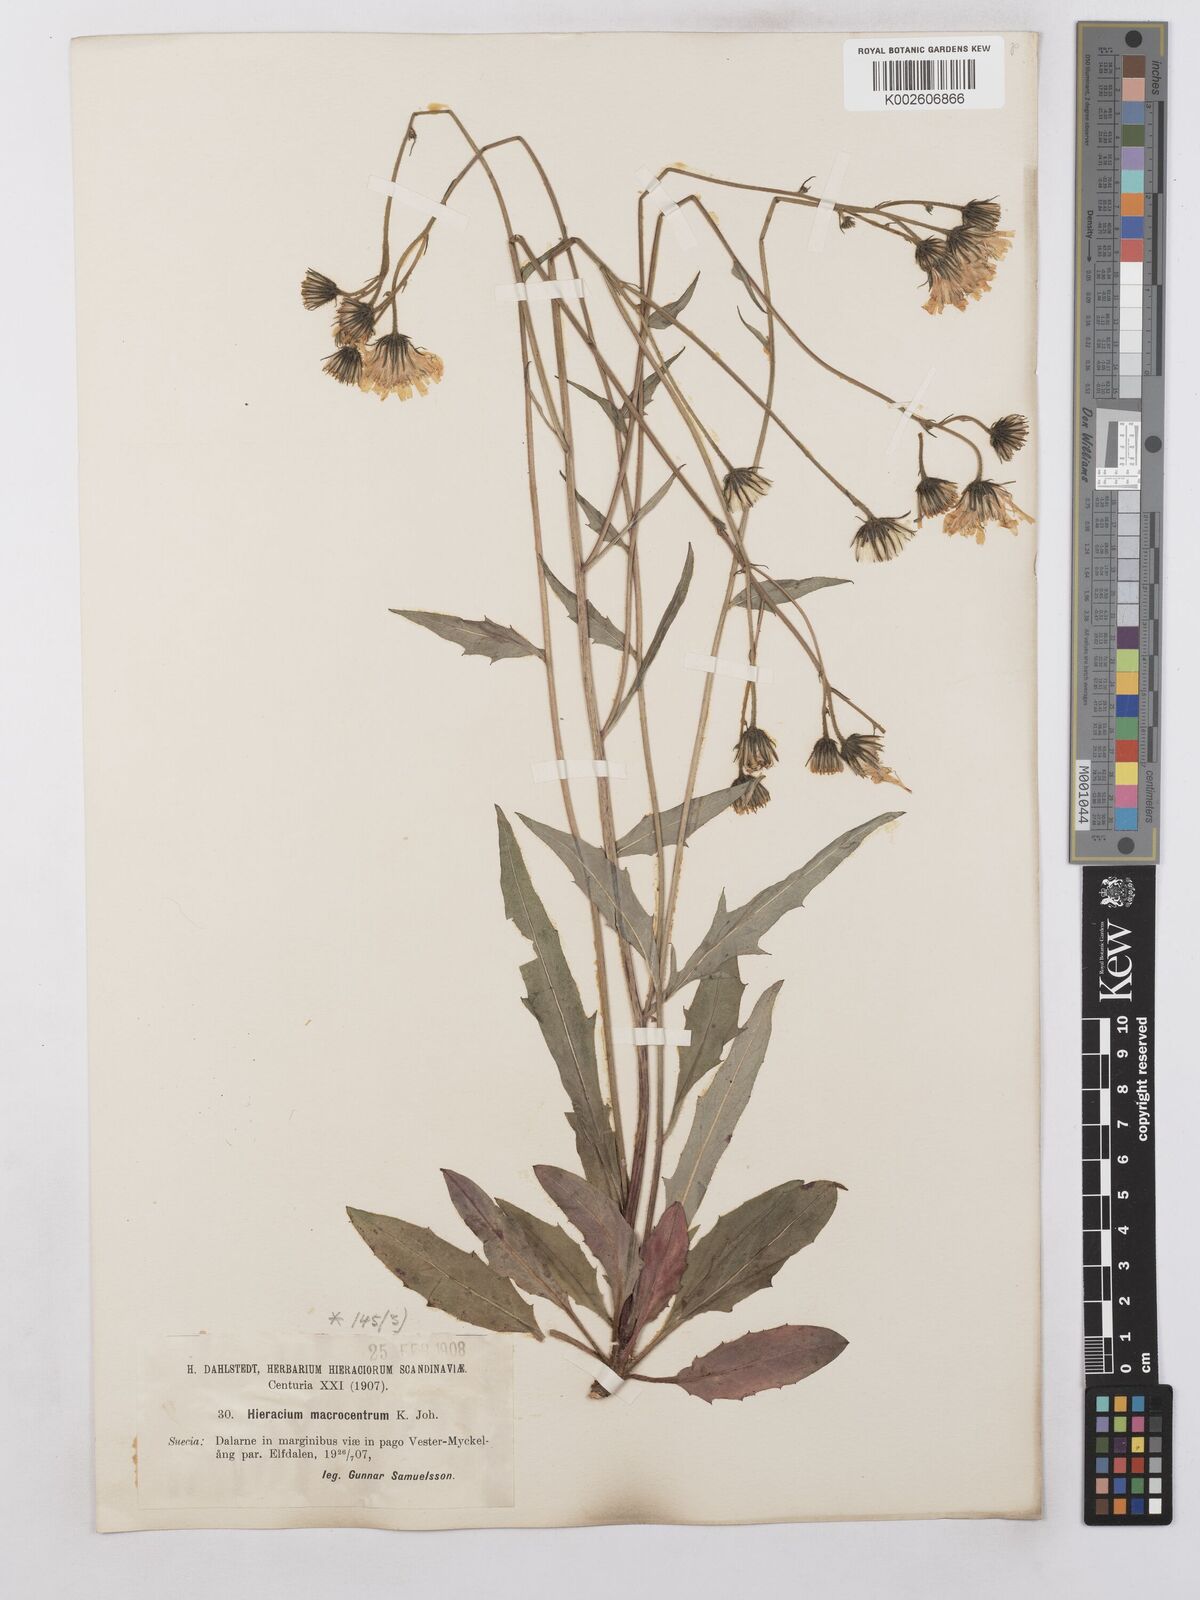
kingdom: Plantae
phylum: Tracheophyta
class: Magnoliopsida
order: Asterales
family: Asteraceae
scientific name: Asteraceae
